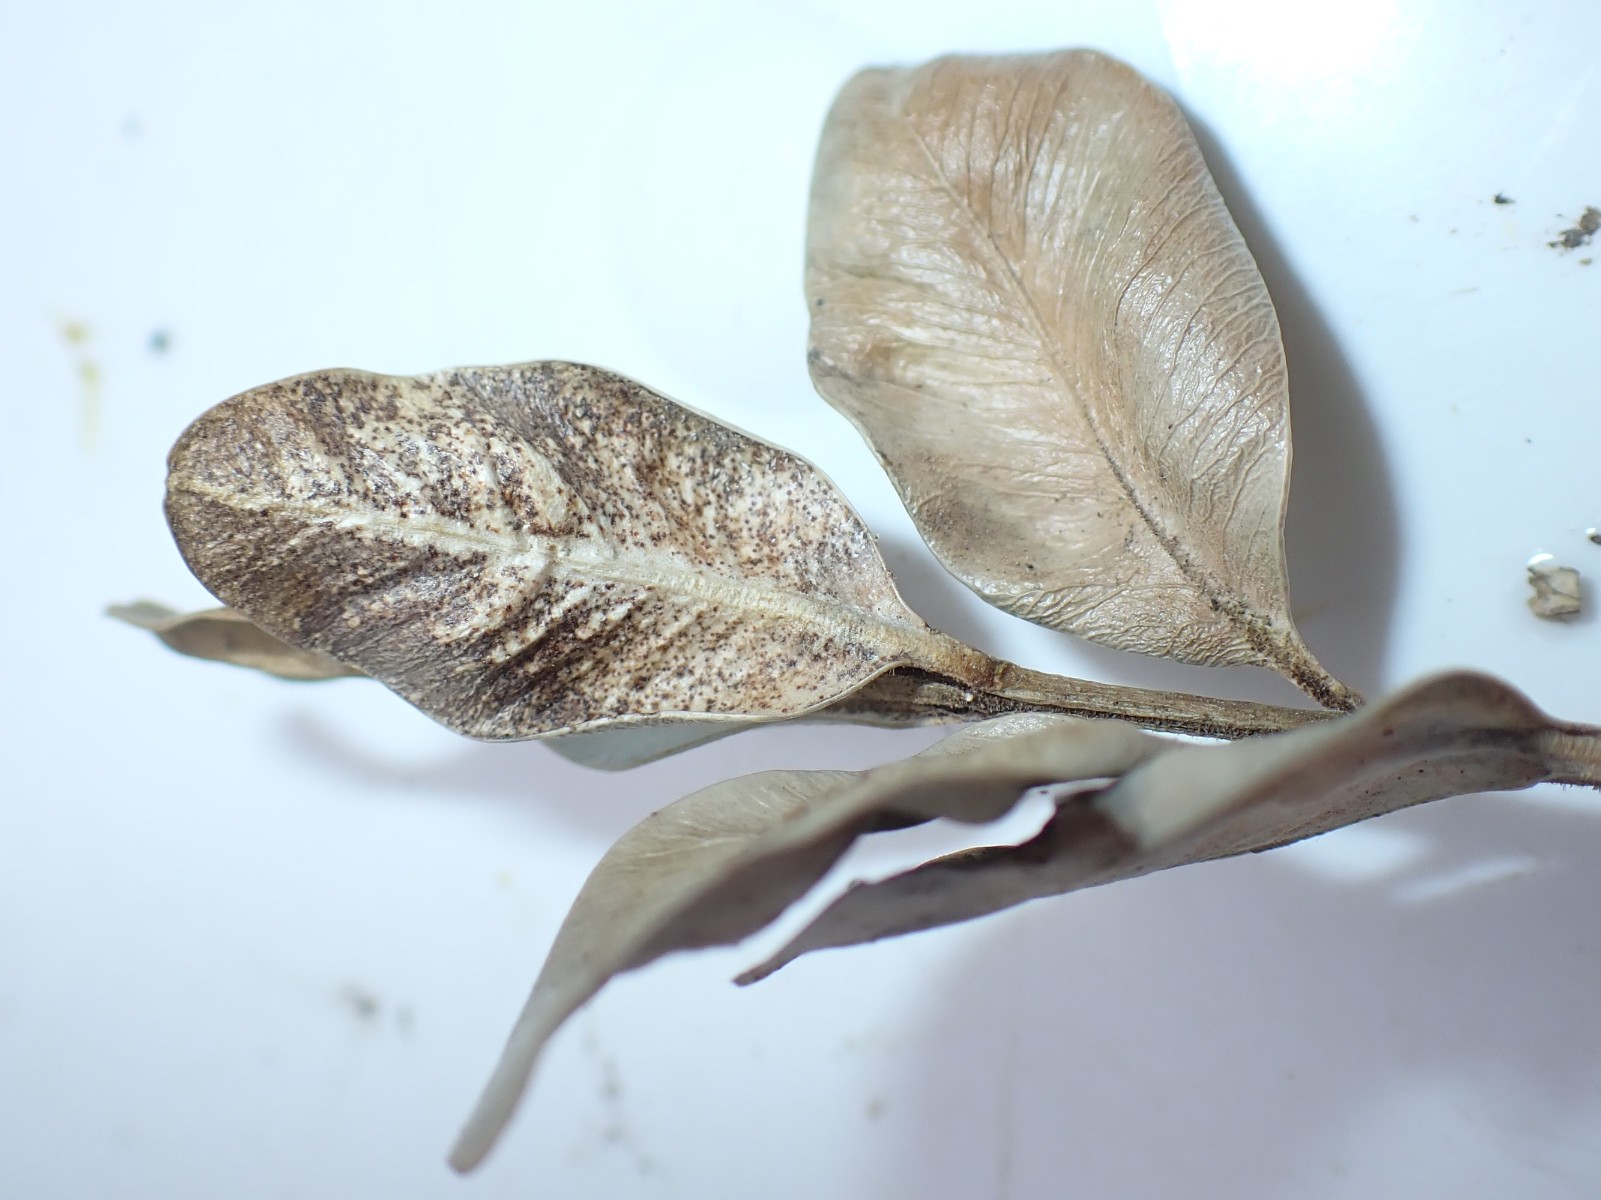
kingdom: Fungi
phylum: Ascomycota
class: Sordariomycetes
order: Hypocreales
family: Nectriaceae
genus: Pseudonectria
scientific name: Pseudonectria buxi
